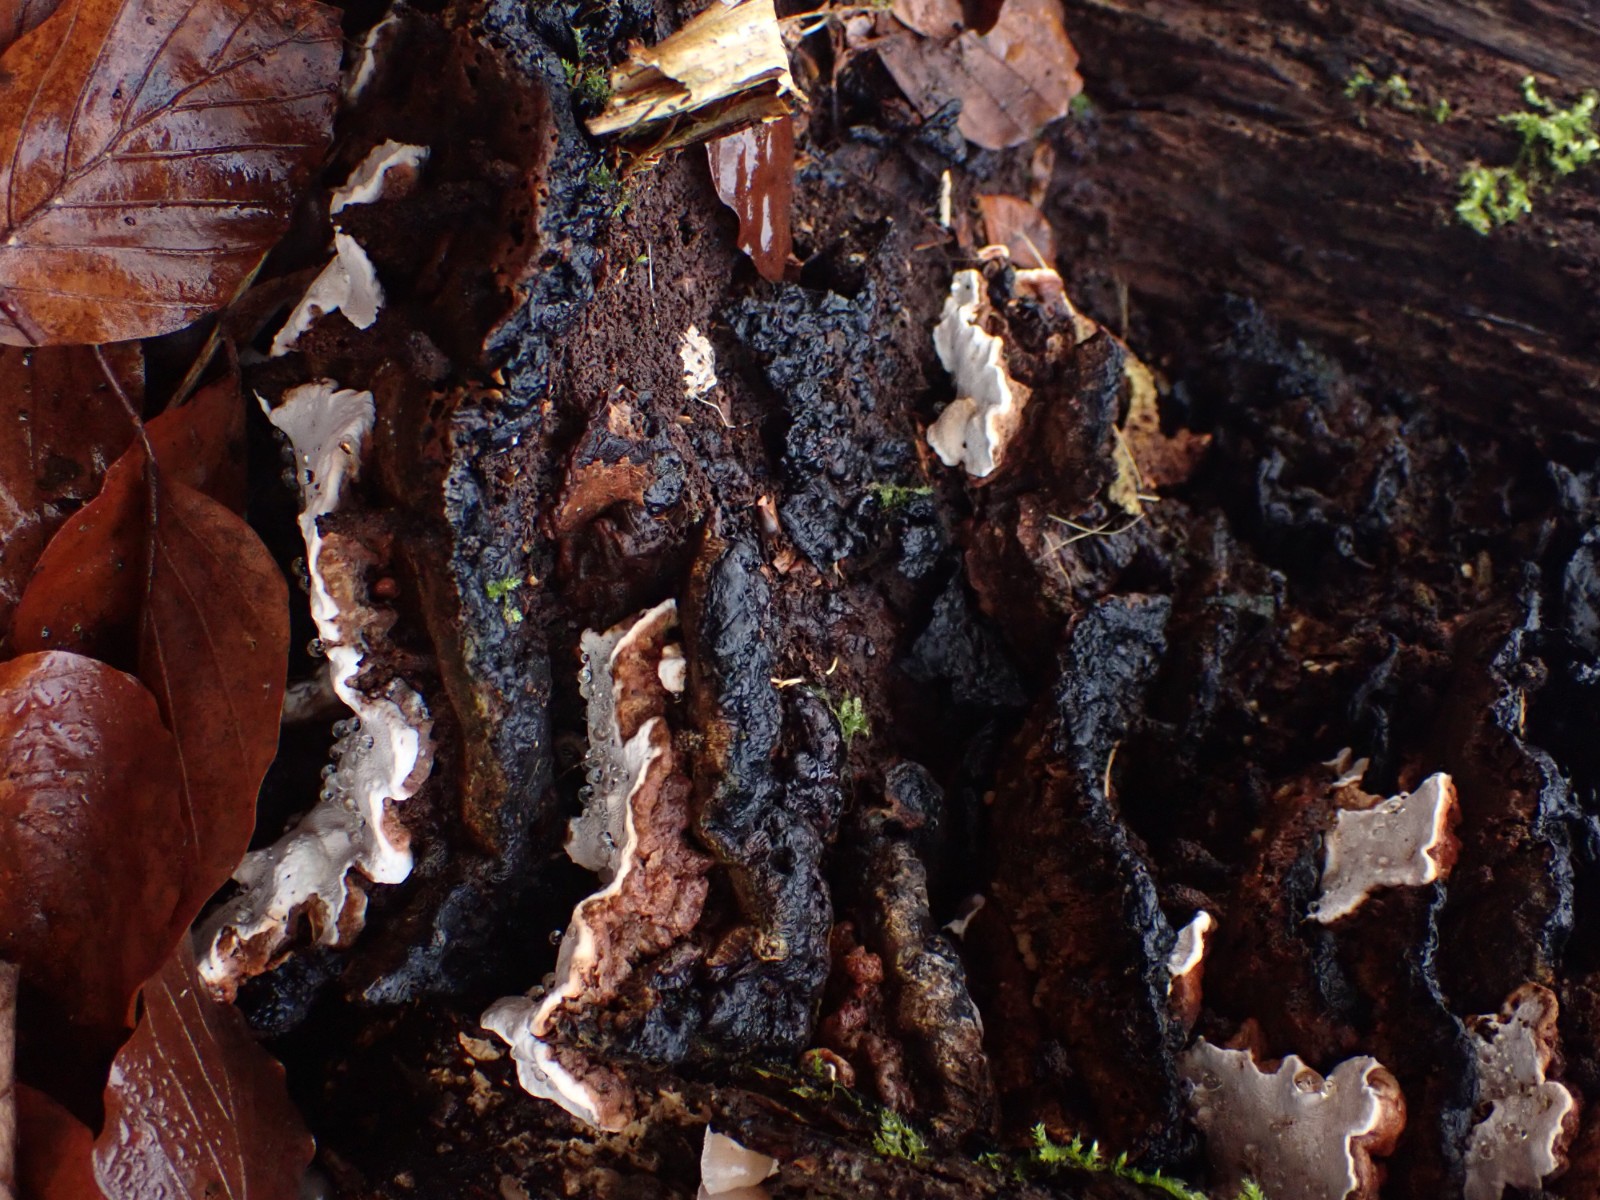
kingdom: Fungi
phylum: Basidiomycota
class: Agaricomycetes
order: Russulales
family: Bondarzewiaceae
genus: Heterobasidion
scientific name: Heterobasidion annosum
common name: almindelig rodfordærver
